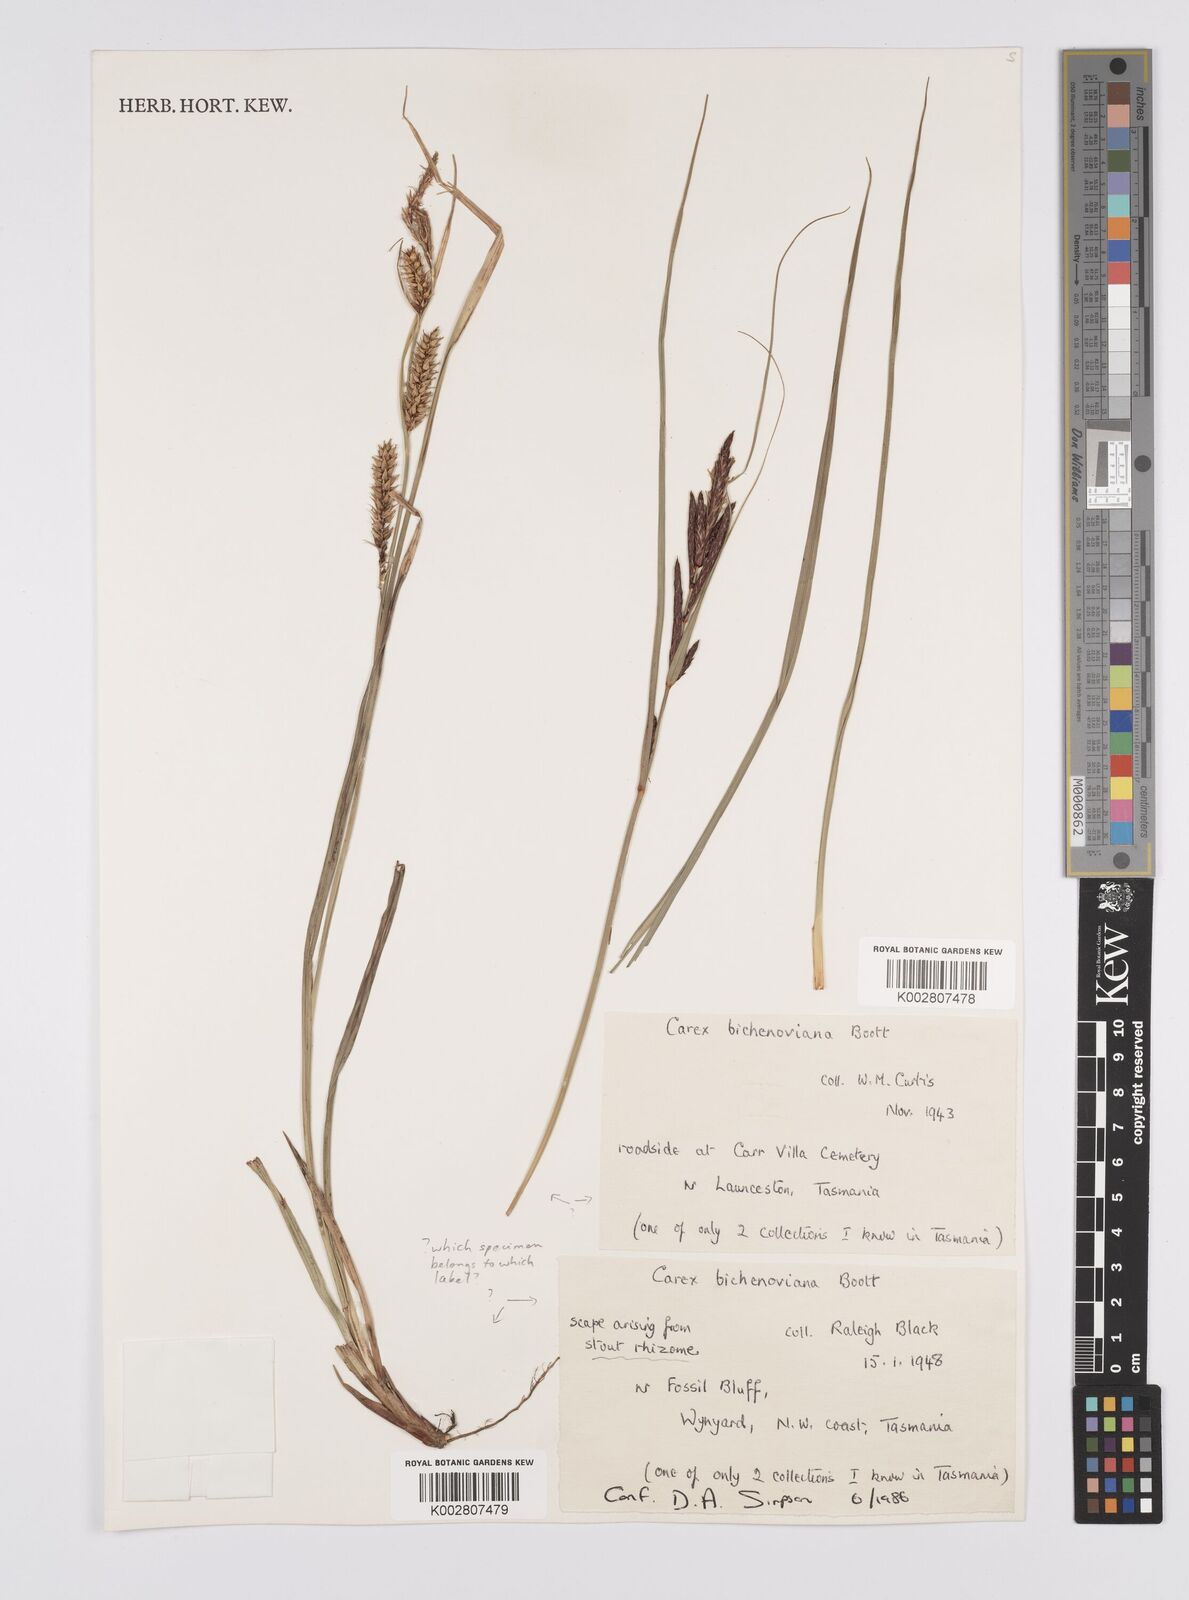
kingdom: Plantae
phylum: Tracheophyta
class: Liliopsida
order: Poales
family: Cyperaceae
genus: Carex
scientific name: Carex bichenoviana
